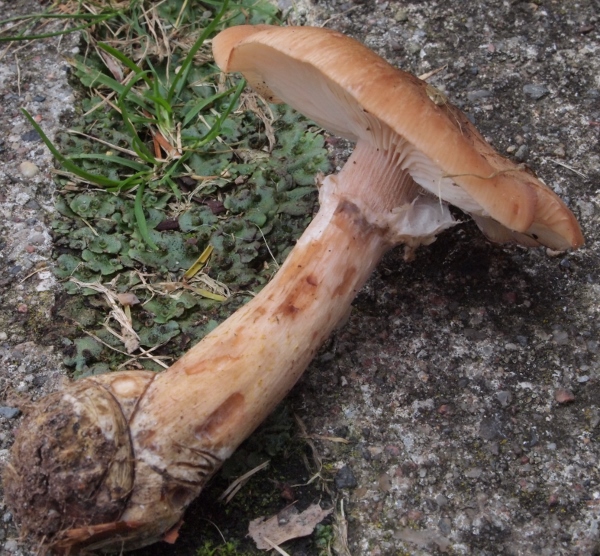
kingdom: Fungi
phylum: Basidiomycota
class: Agaricomycetes
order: Agaricales
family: Physalacriaceae
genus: Armillaria
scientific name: Armillaria lutea
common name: køllestokket honningsvamp
